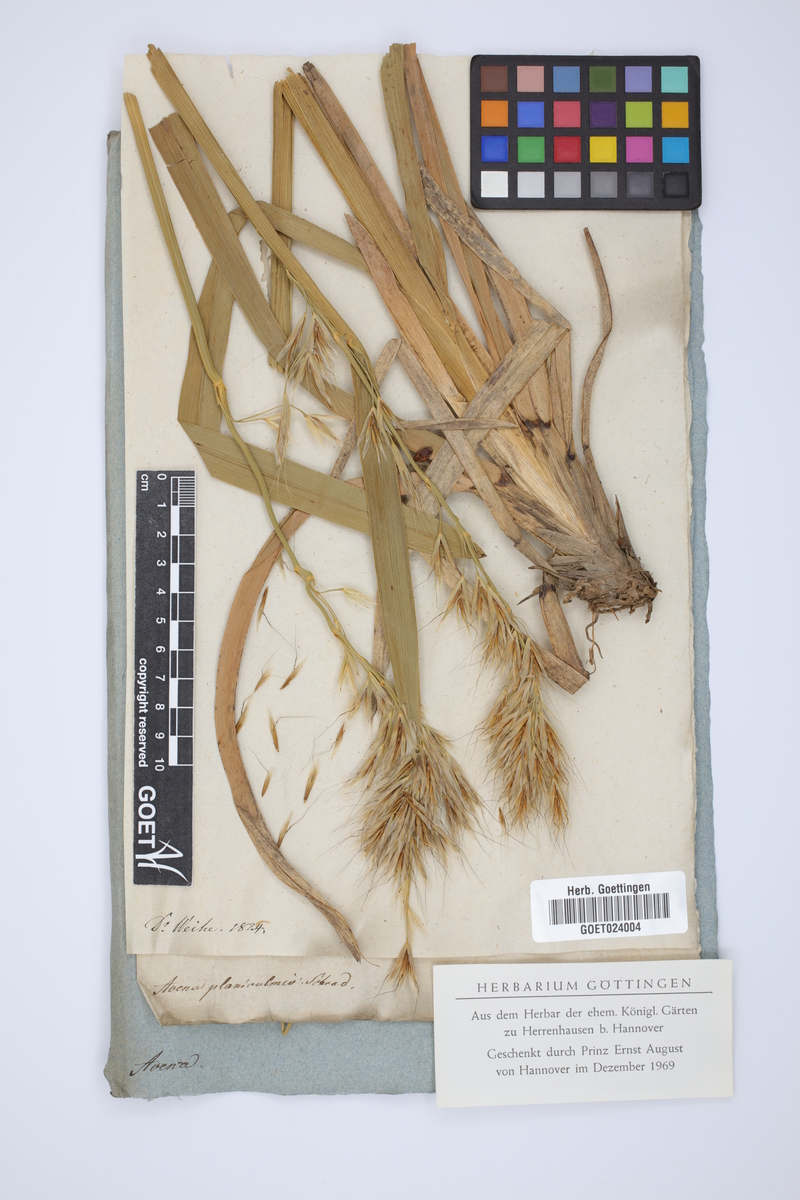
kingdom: Plantae
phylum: Tracheophyta
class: Liliopsida
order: Poales
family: Poaceae
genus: Helictochloa
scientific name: Helictochloa planiculmis
